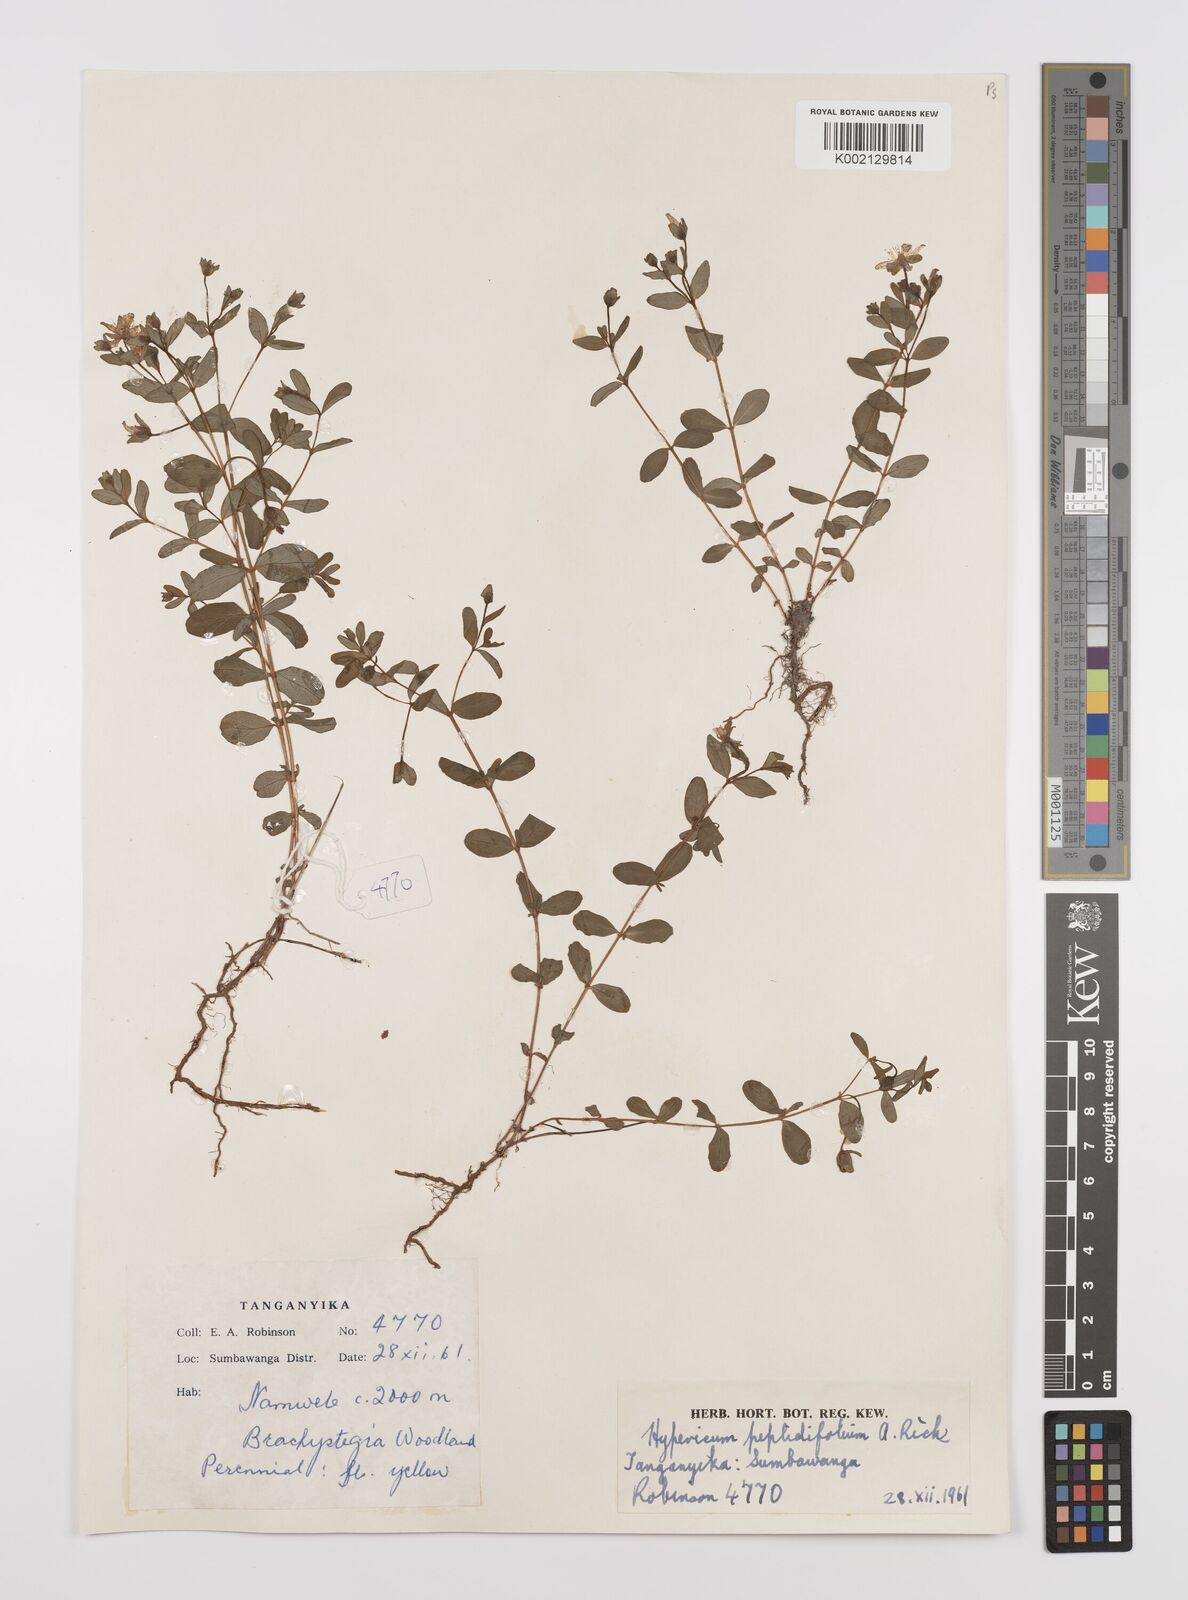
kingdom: Plantae
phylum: Tracheophyta
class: Magnoliopsida
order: Malpighiales
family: Hypericaceae
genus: Hypericum
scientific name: Hypericum peplidifolium
